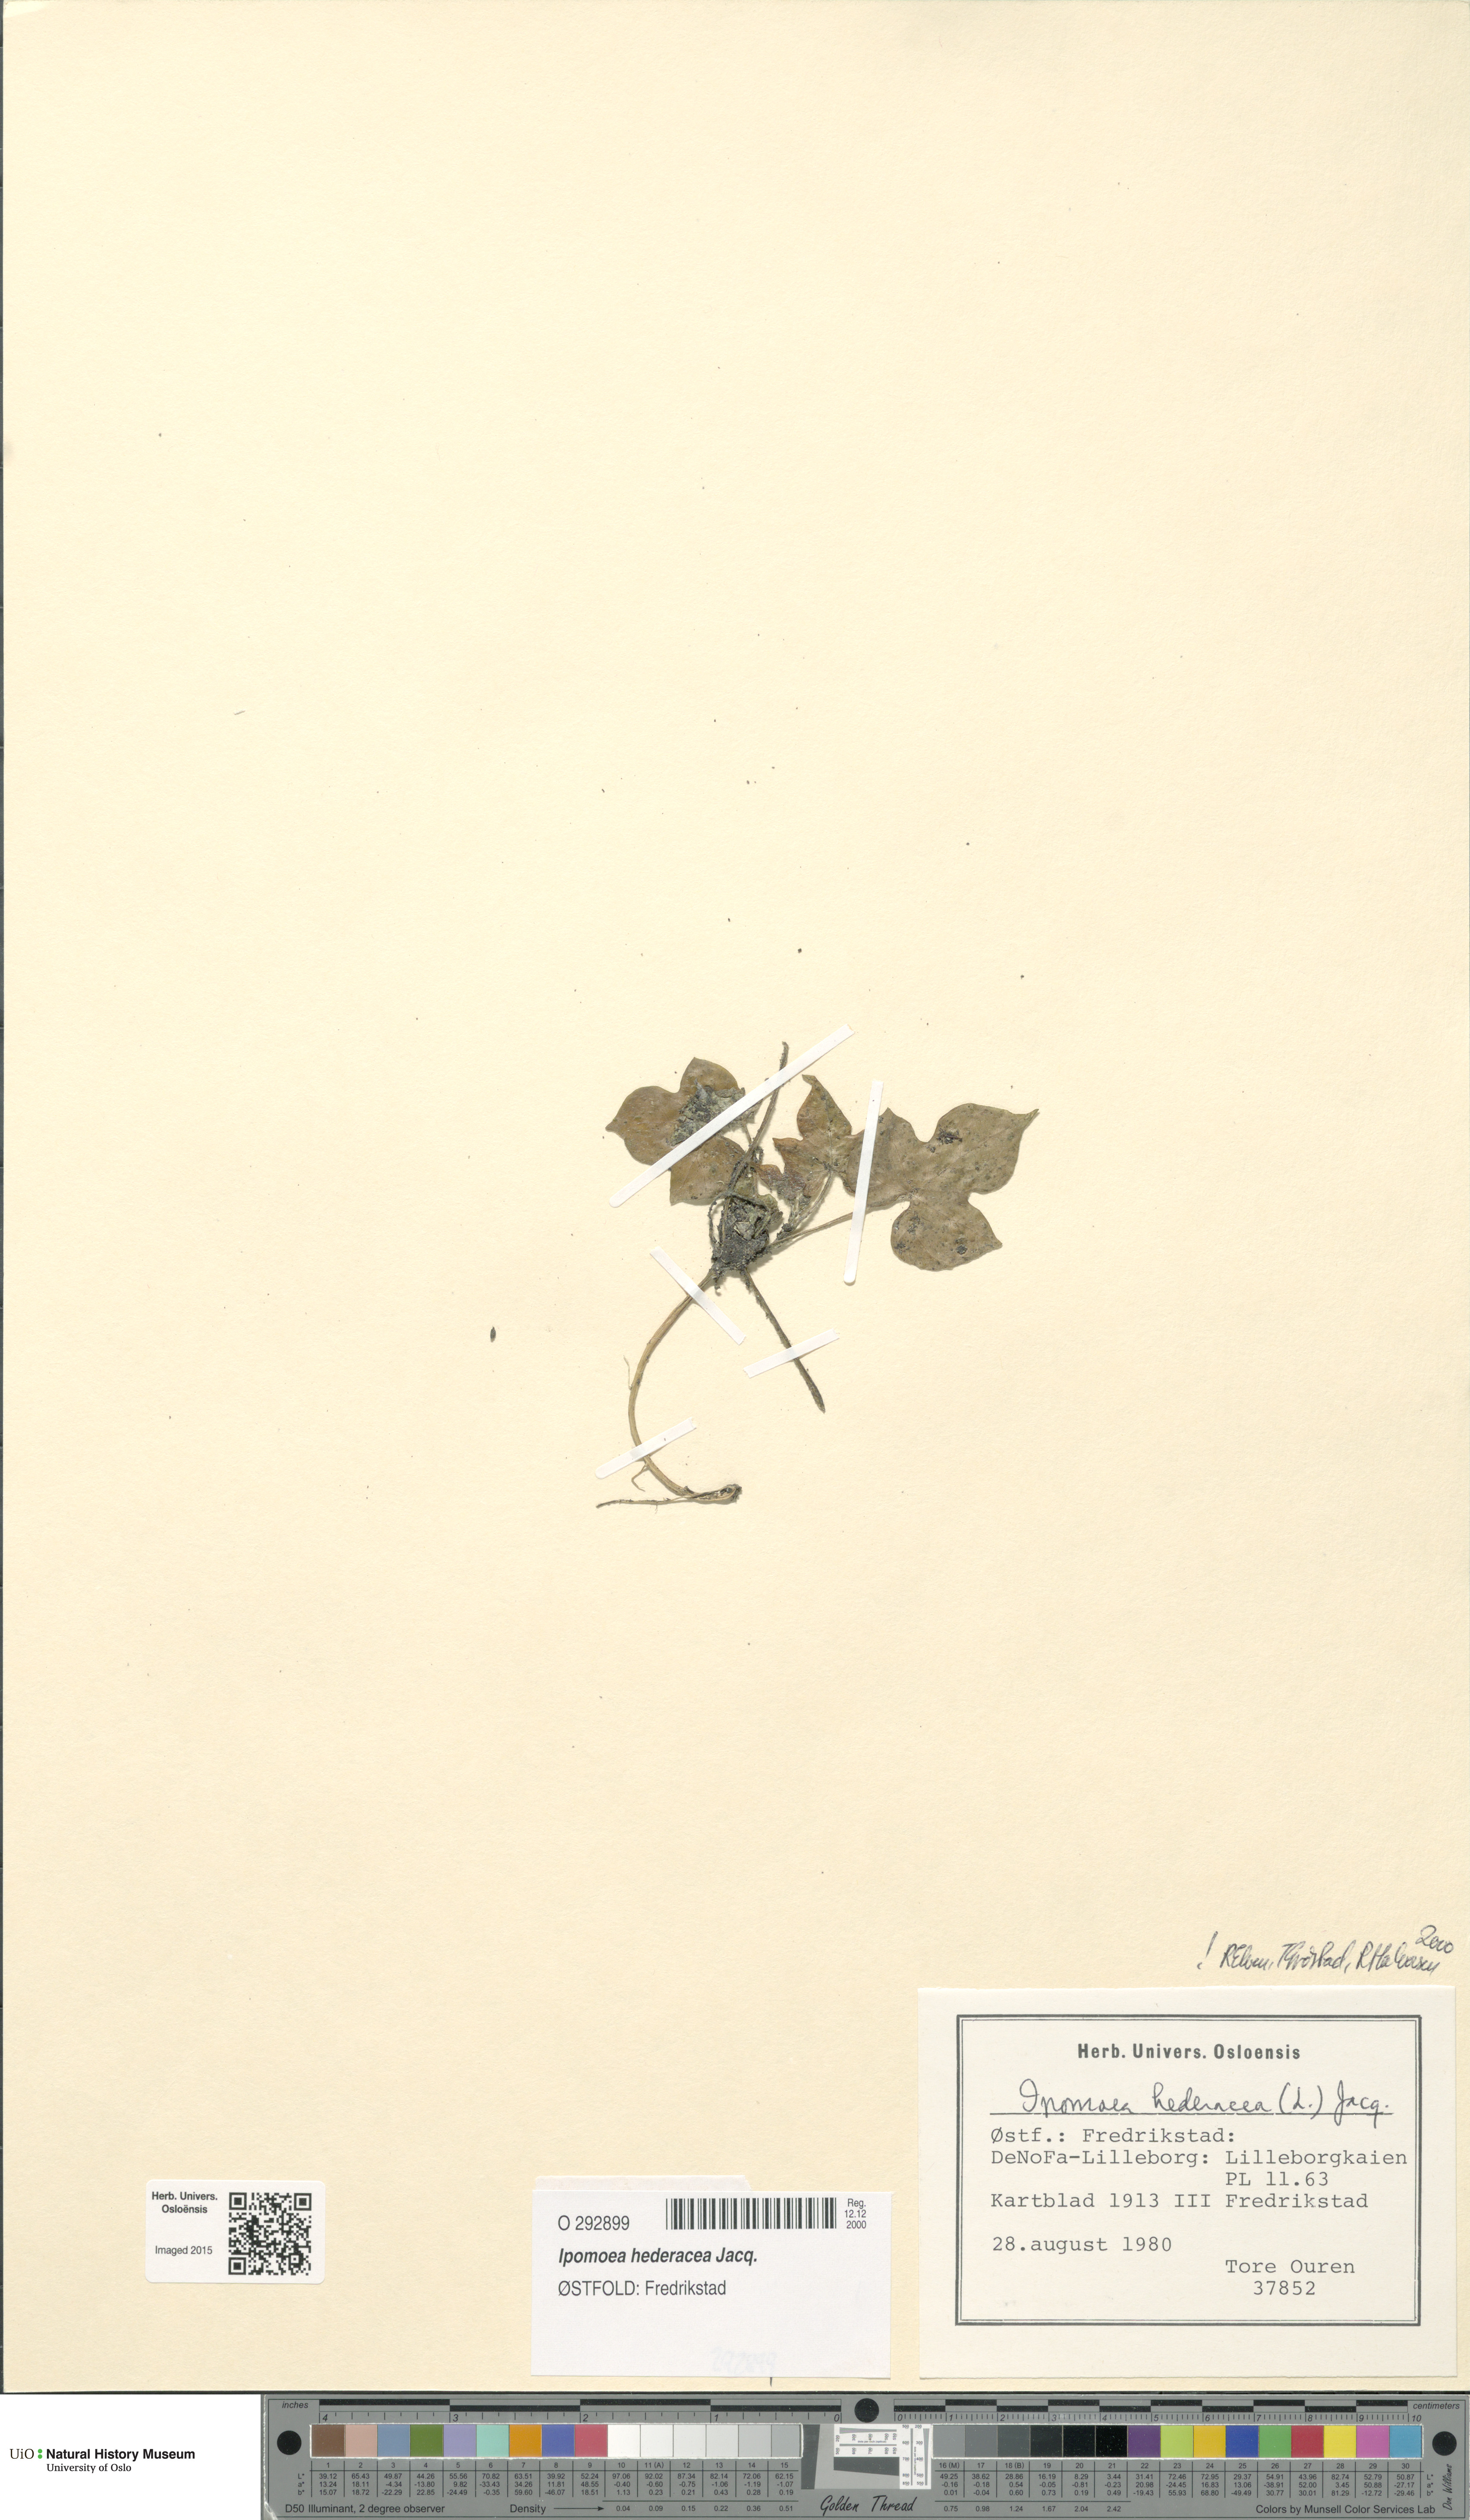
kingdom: Plantae
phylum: Tracheophyta
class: Magnoliopsida
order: Solanales
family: Convolvulaceae
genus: Ipomoea
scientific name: Ipomoea nil
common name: Japanese morning-glory
